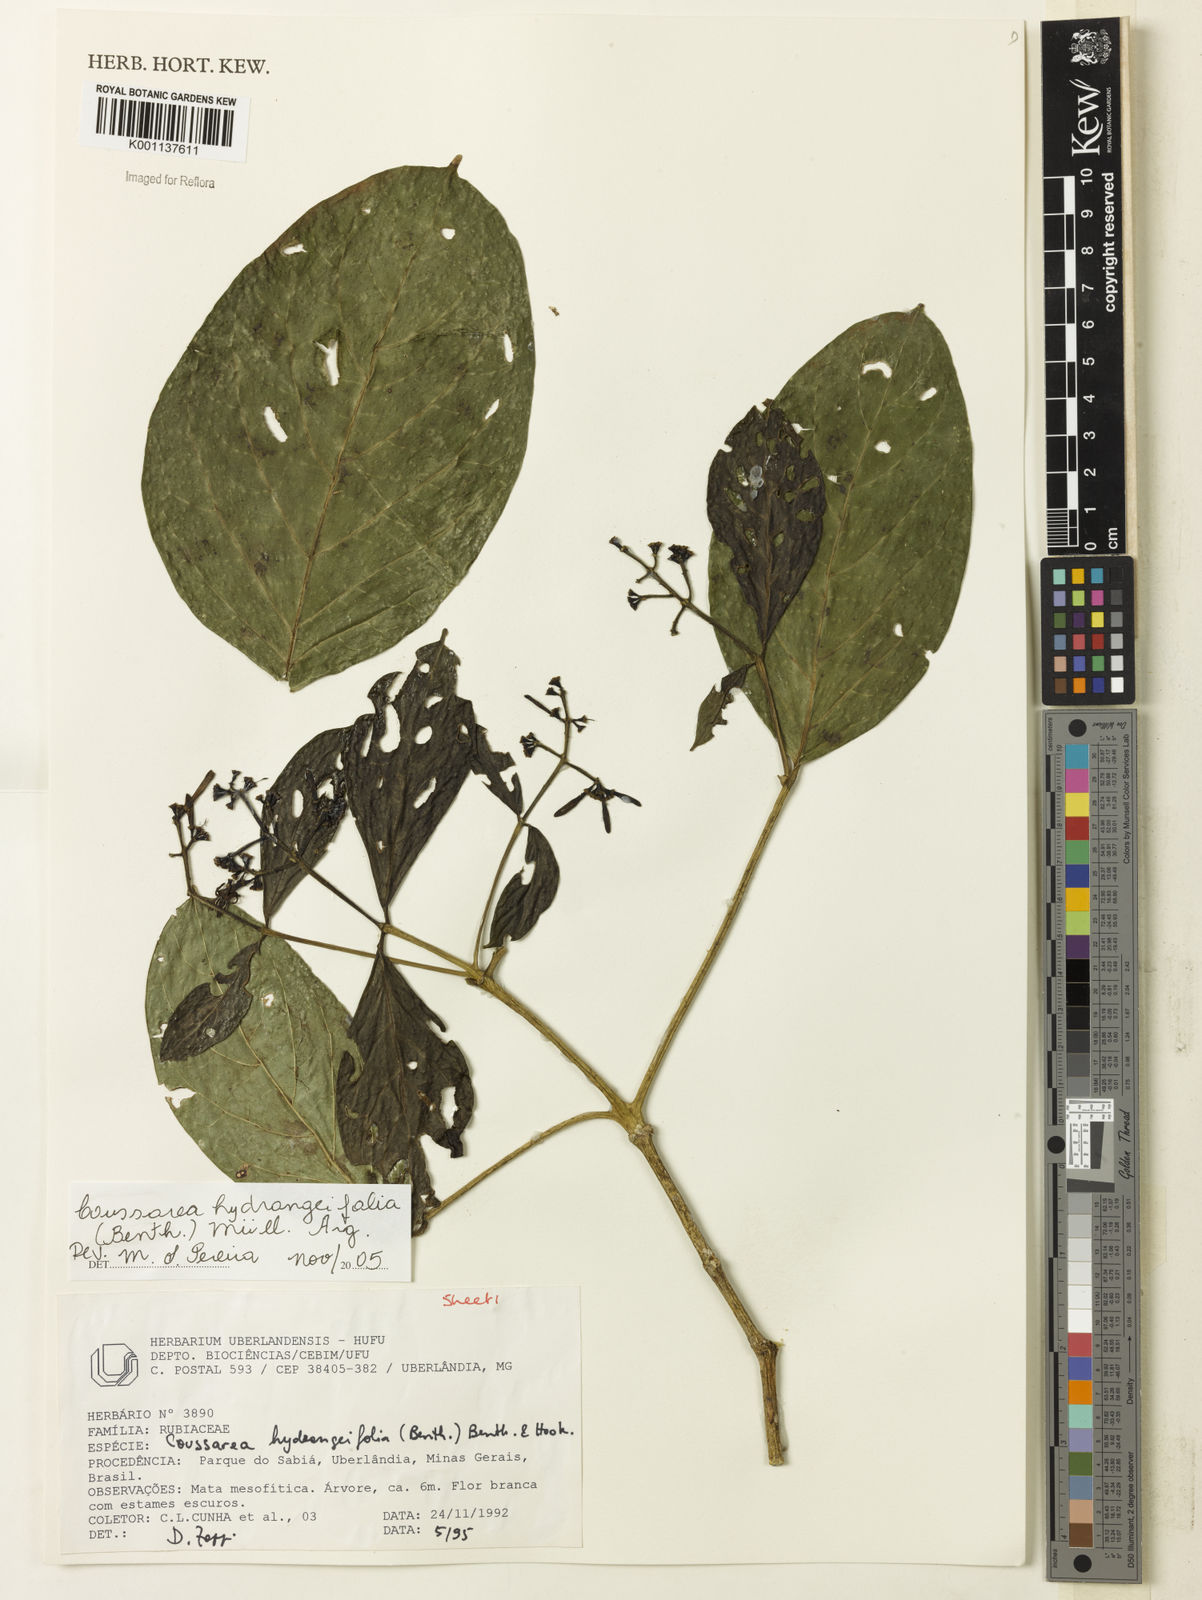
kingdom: Plantae
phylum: Tracheophyta
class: Magnoliopsida
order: Gentianales
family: Rubiaceae
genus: Coussarea
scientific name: Coussarea
